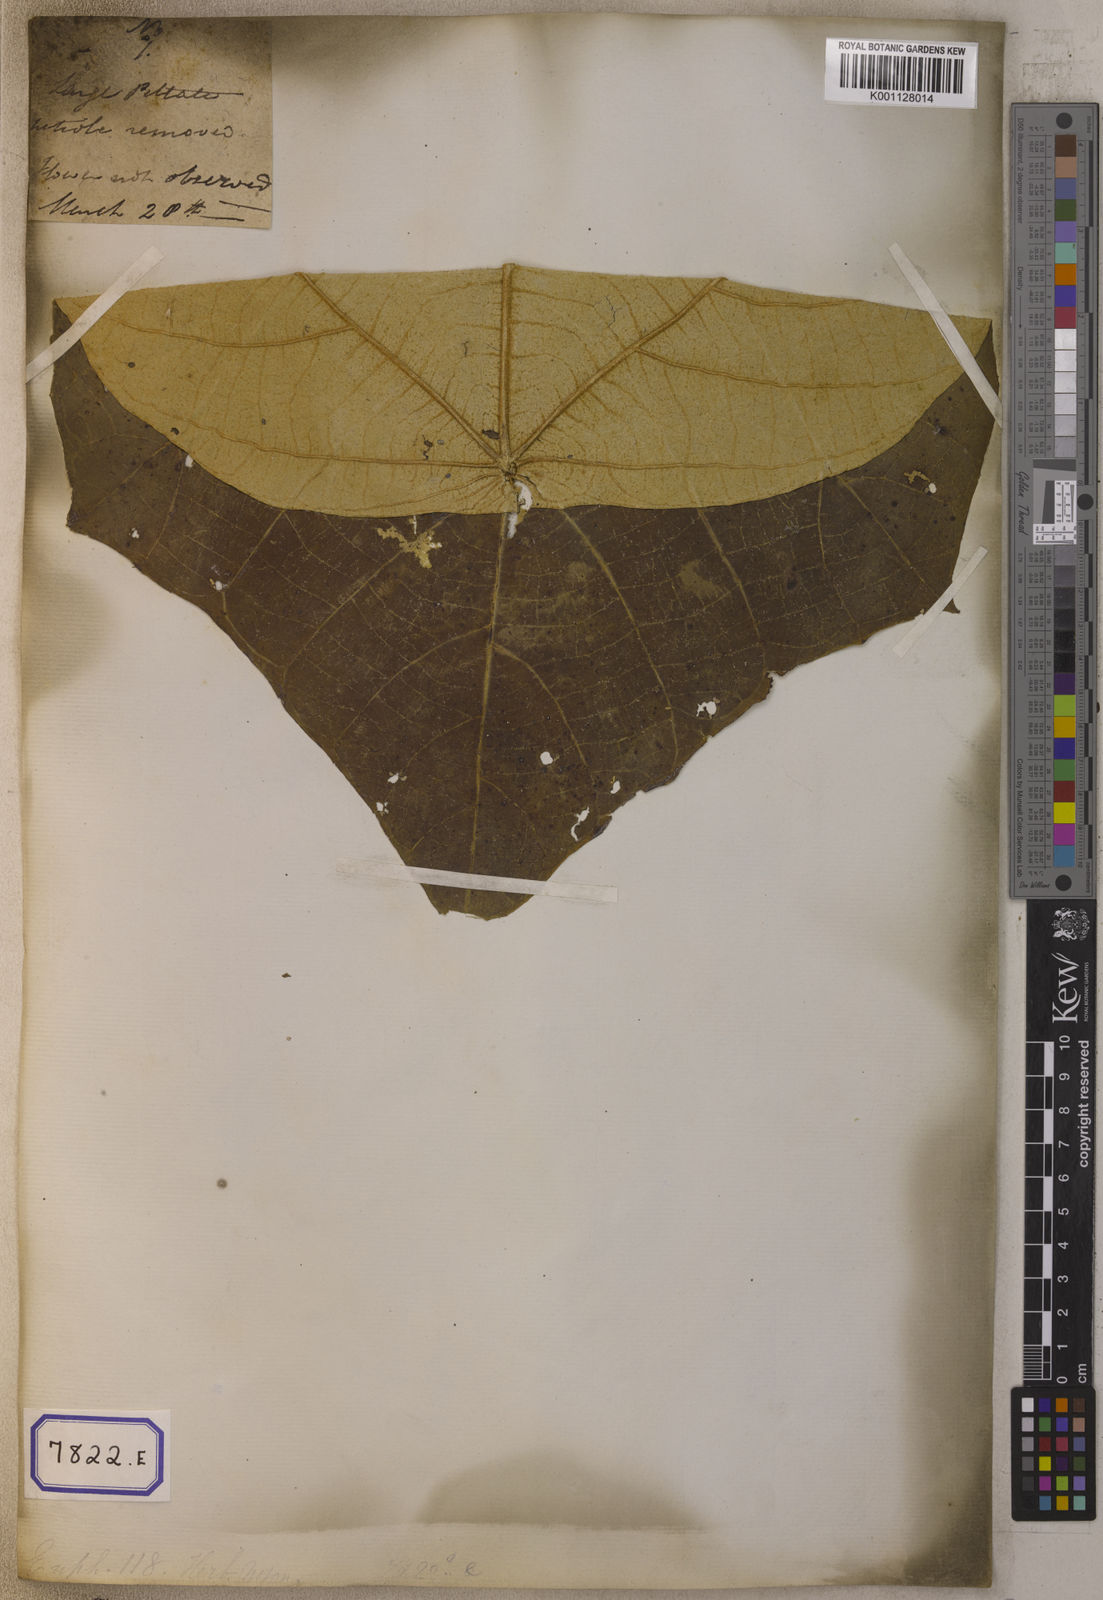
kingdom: Plantae
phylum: Tracheophyta
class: Magnoliopsida
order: Malpighiales
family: Euphorbiaceae
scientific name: Euphorbiaceae
